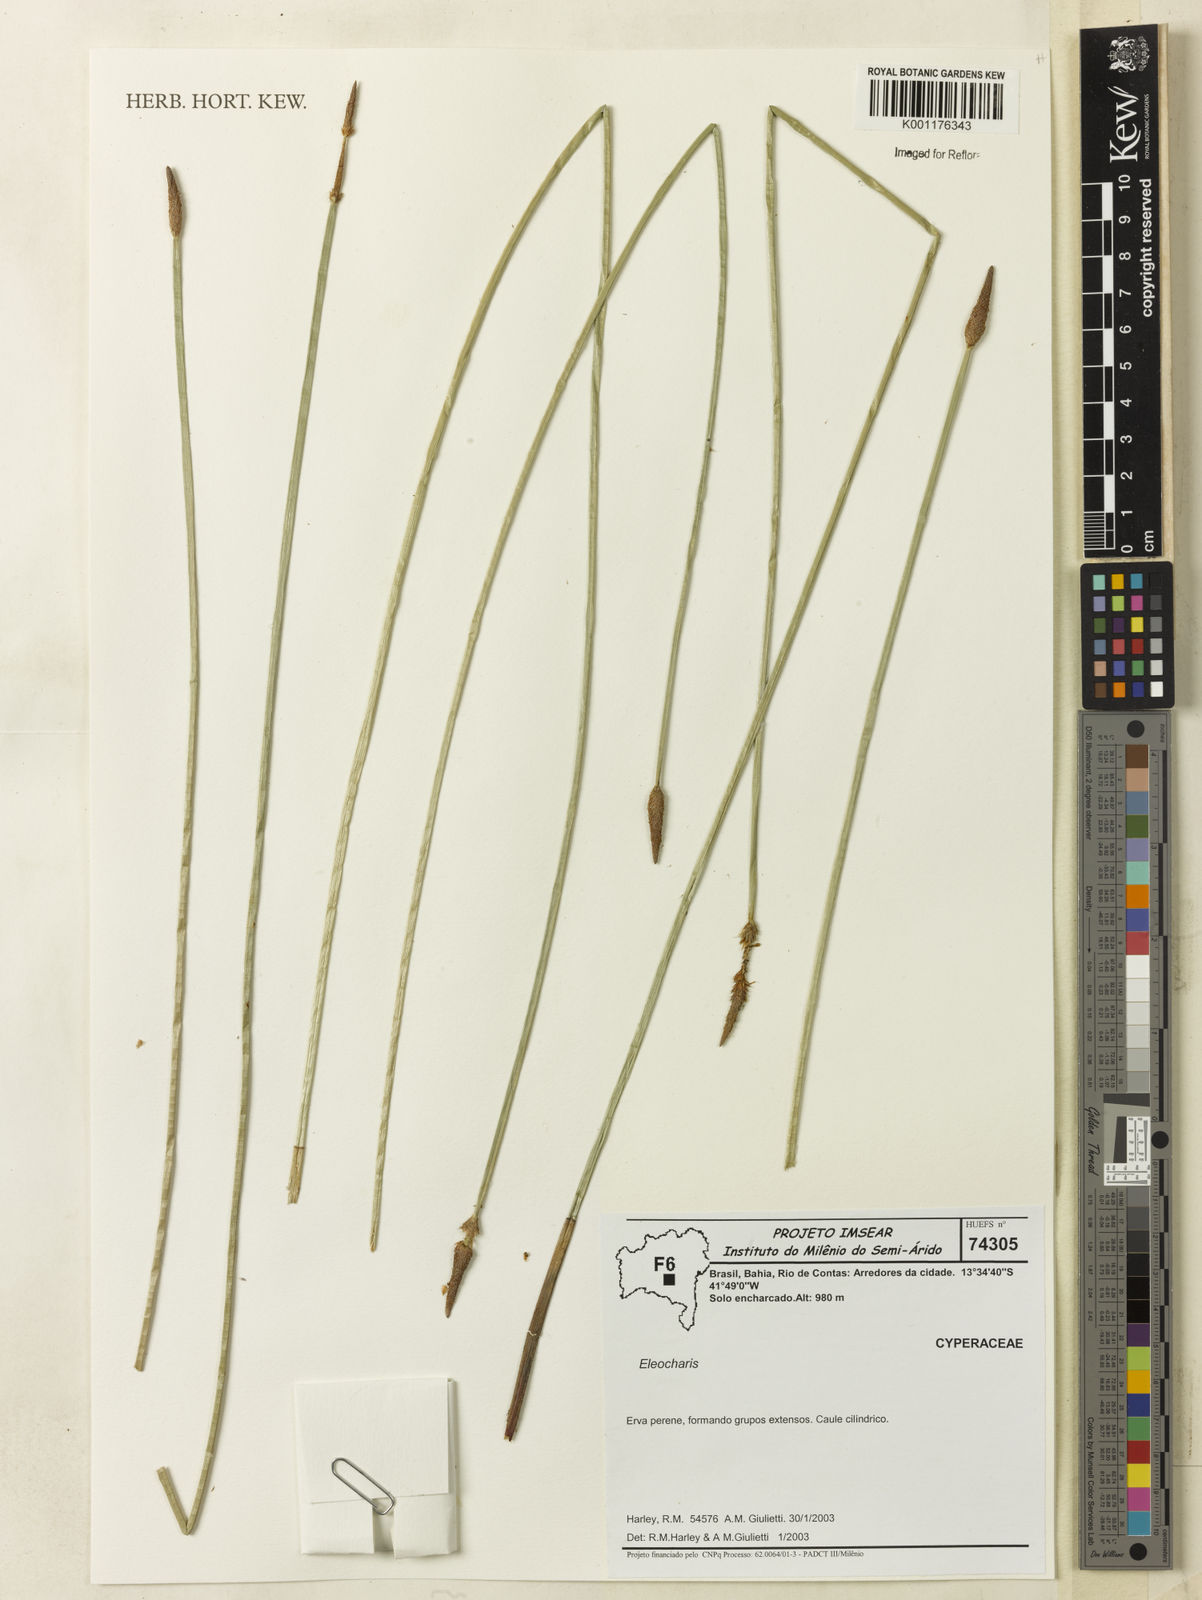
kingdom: Plantae
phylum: Tracheophyta
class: Liliopsida
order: Poales
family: Cyperaceae
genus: Eleocharis
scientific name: Eleocharis
